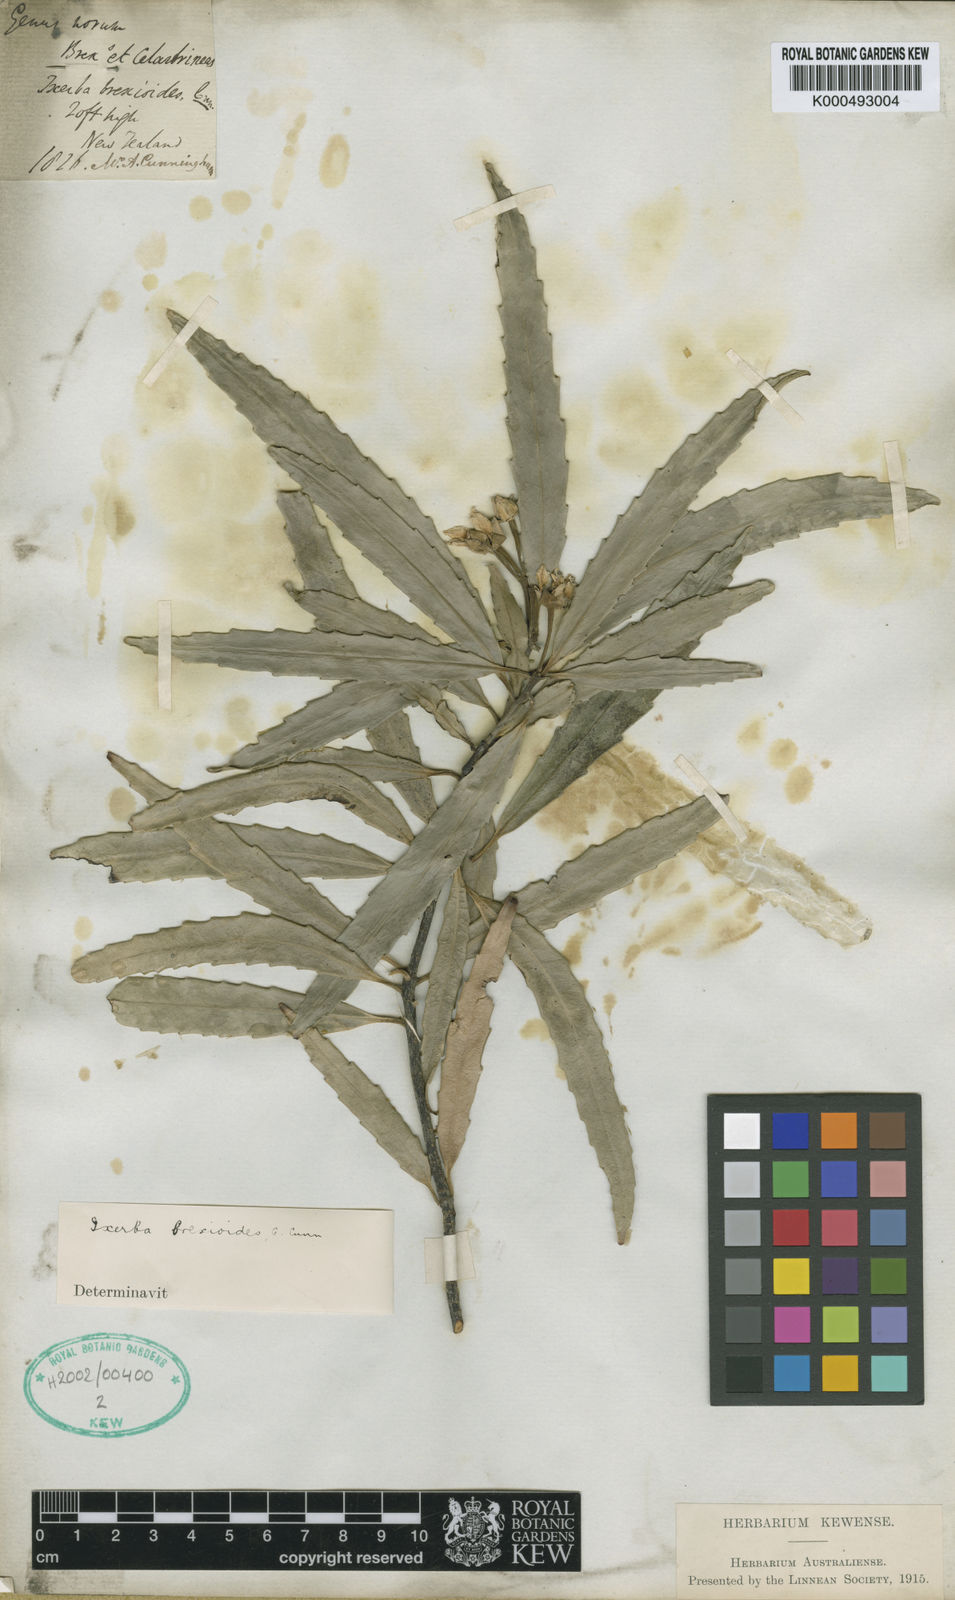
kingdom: Plantae
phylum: Tracheophyta
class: Magnoliopsida
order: Crossosomatales
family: Ixerbaceae
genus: Ixerba
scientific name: Ixerba brexioides
